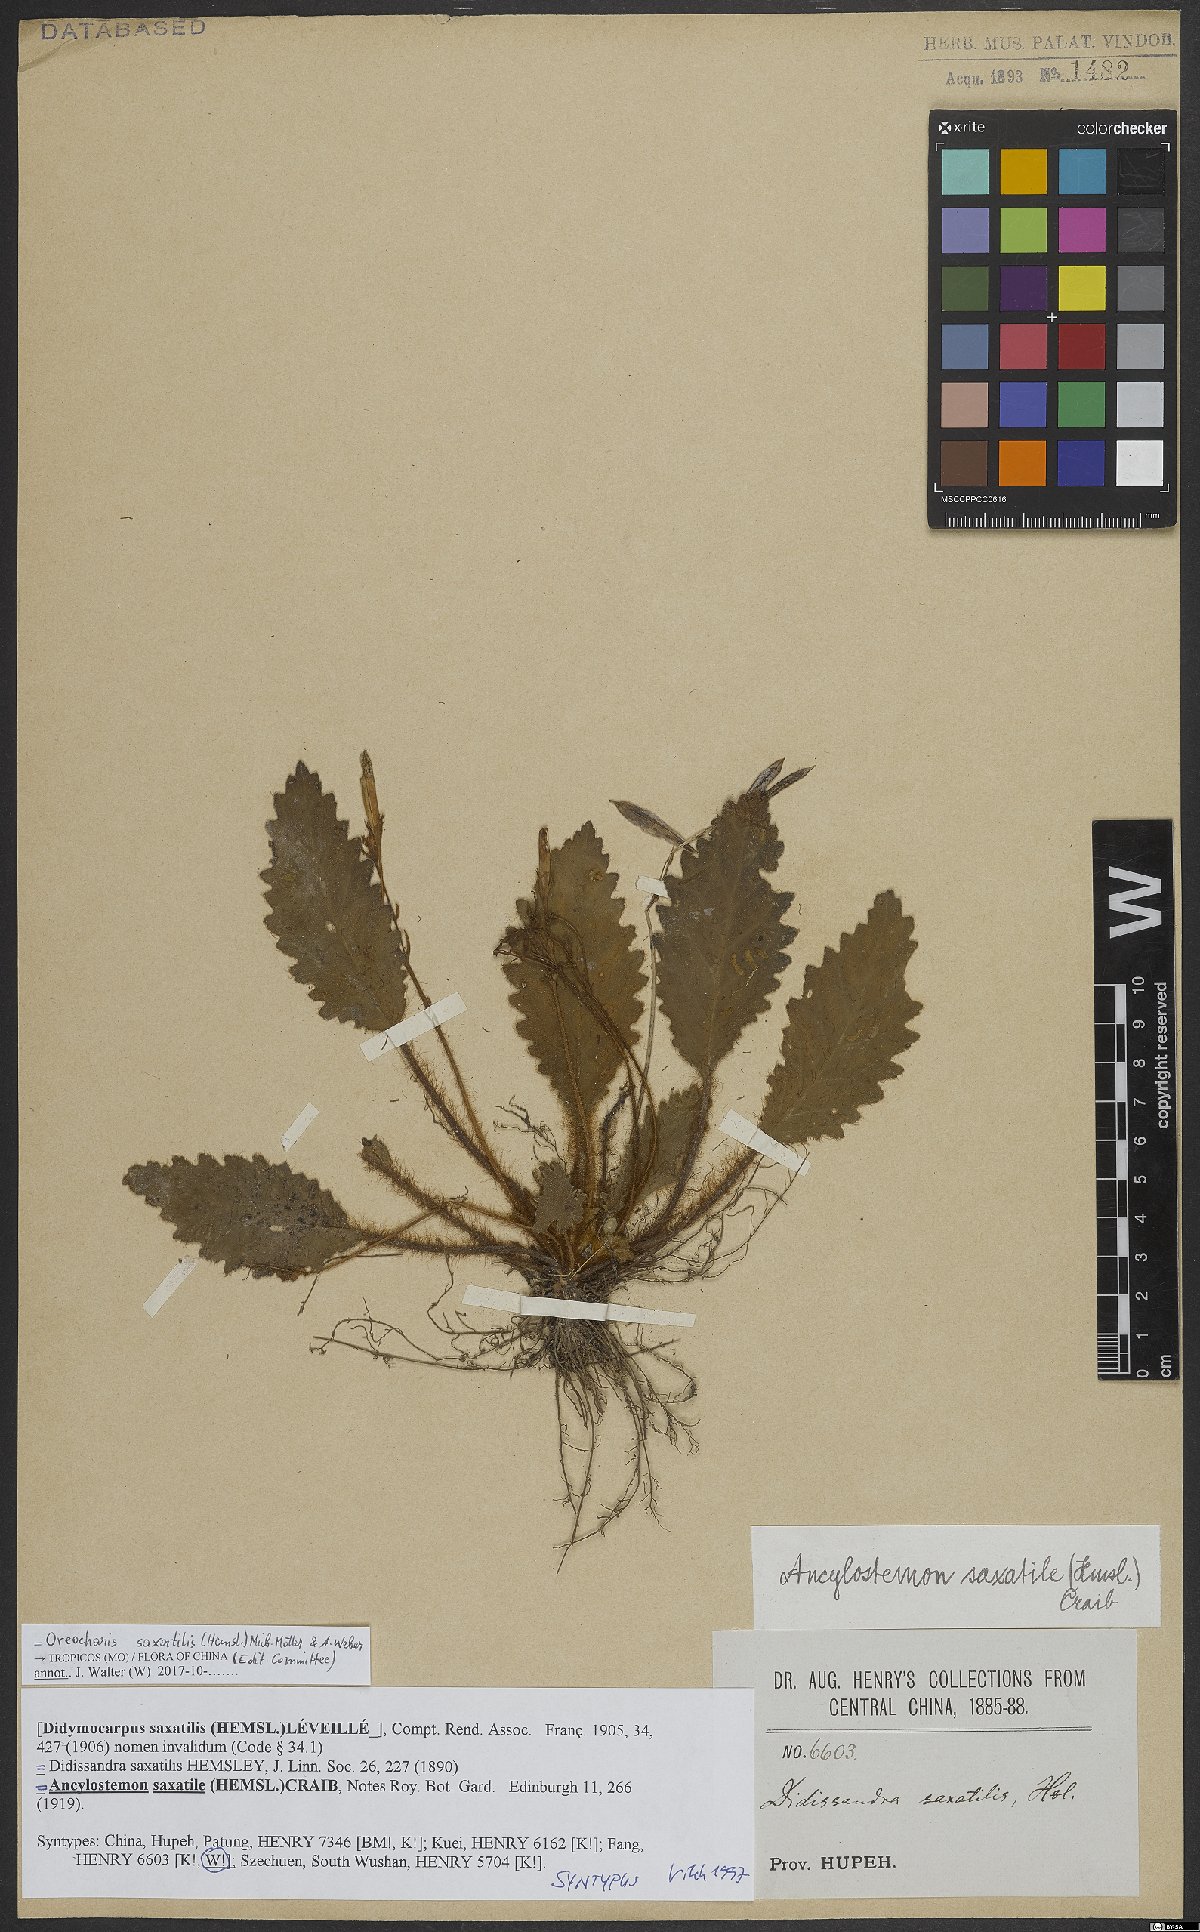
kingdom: Plantae
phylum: Tracheophyta
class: Magnoliopsida
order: Lamiales
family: Gesneriaceae
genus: Oreocharis
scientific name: Oreocharis saxatilis
